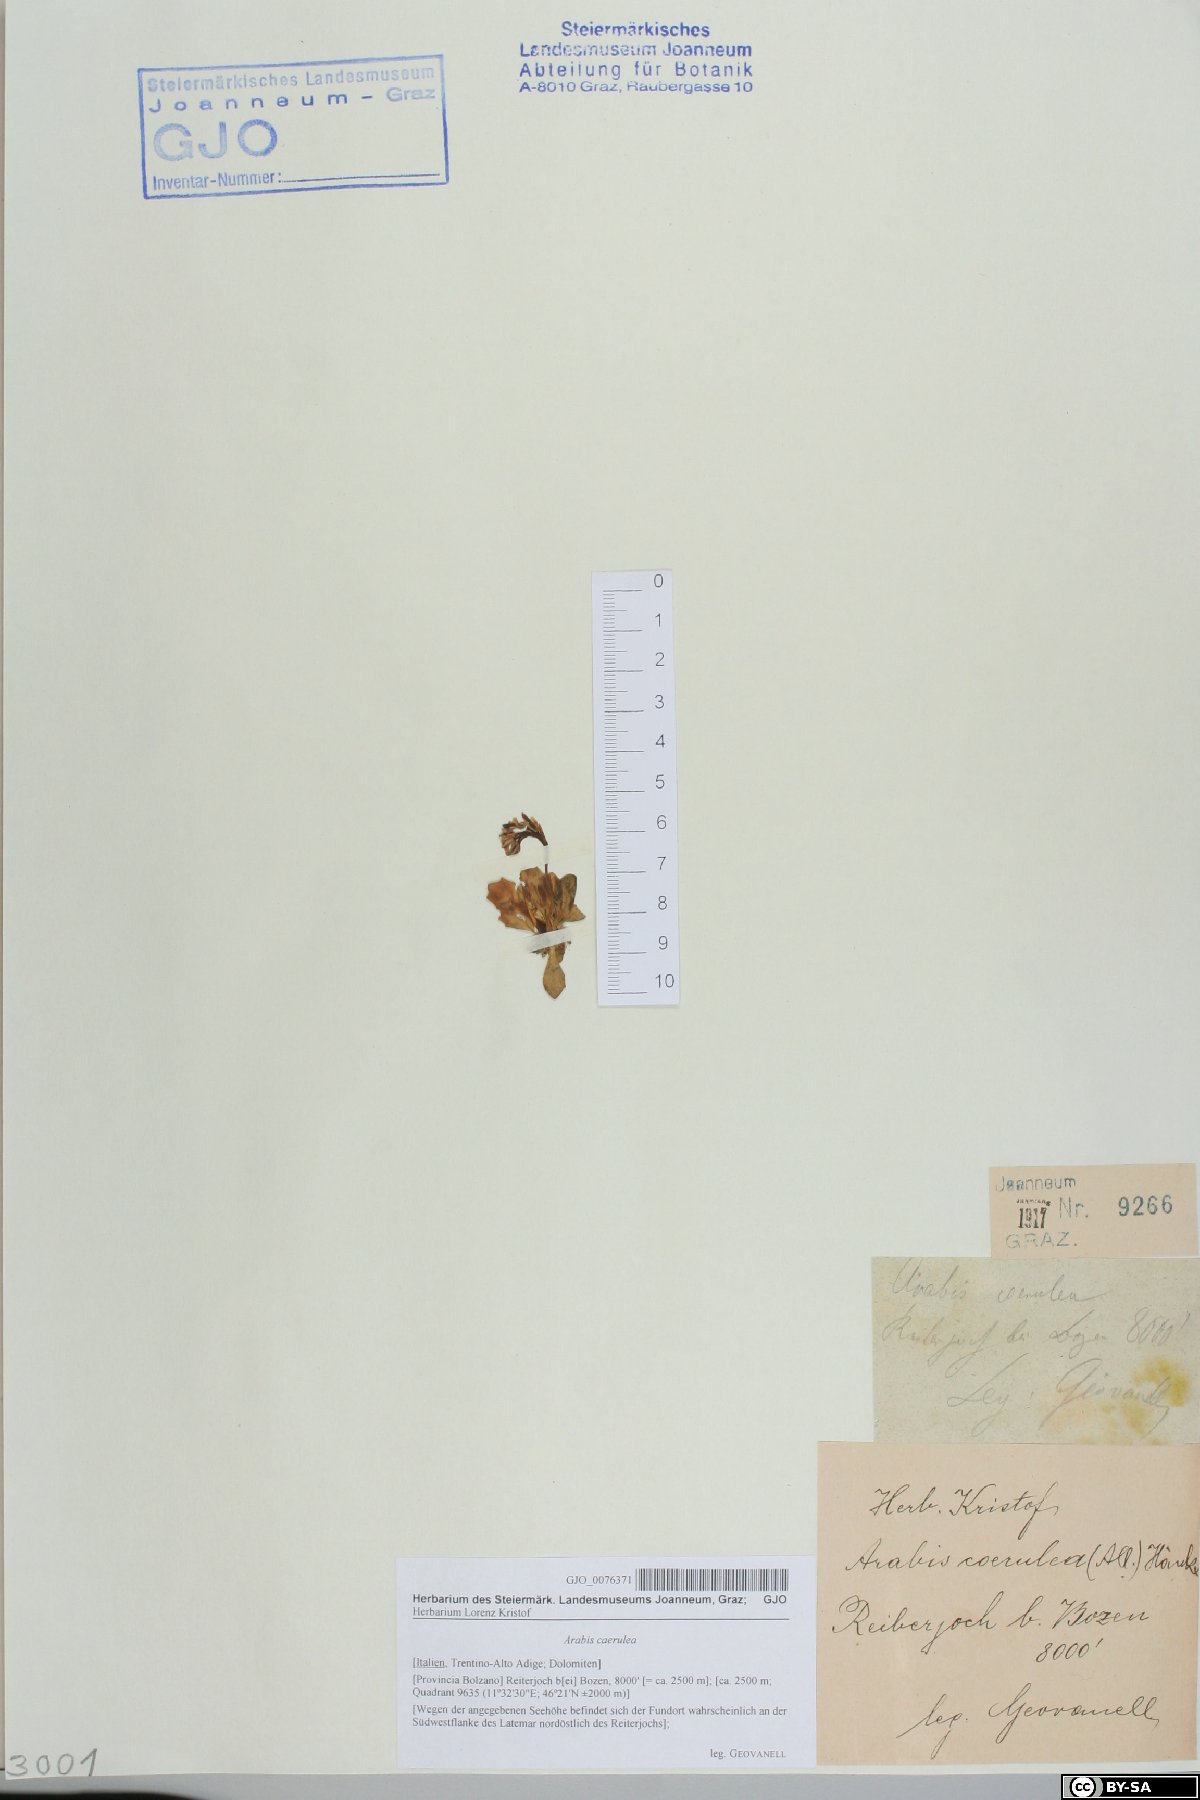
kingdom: Plantae
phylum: Tracheophyta
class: Magnoliopsida
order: Brassicales
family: Brassicaceae
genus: Arabis
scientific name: Arabis caerulea
